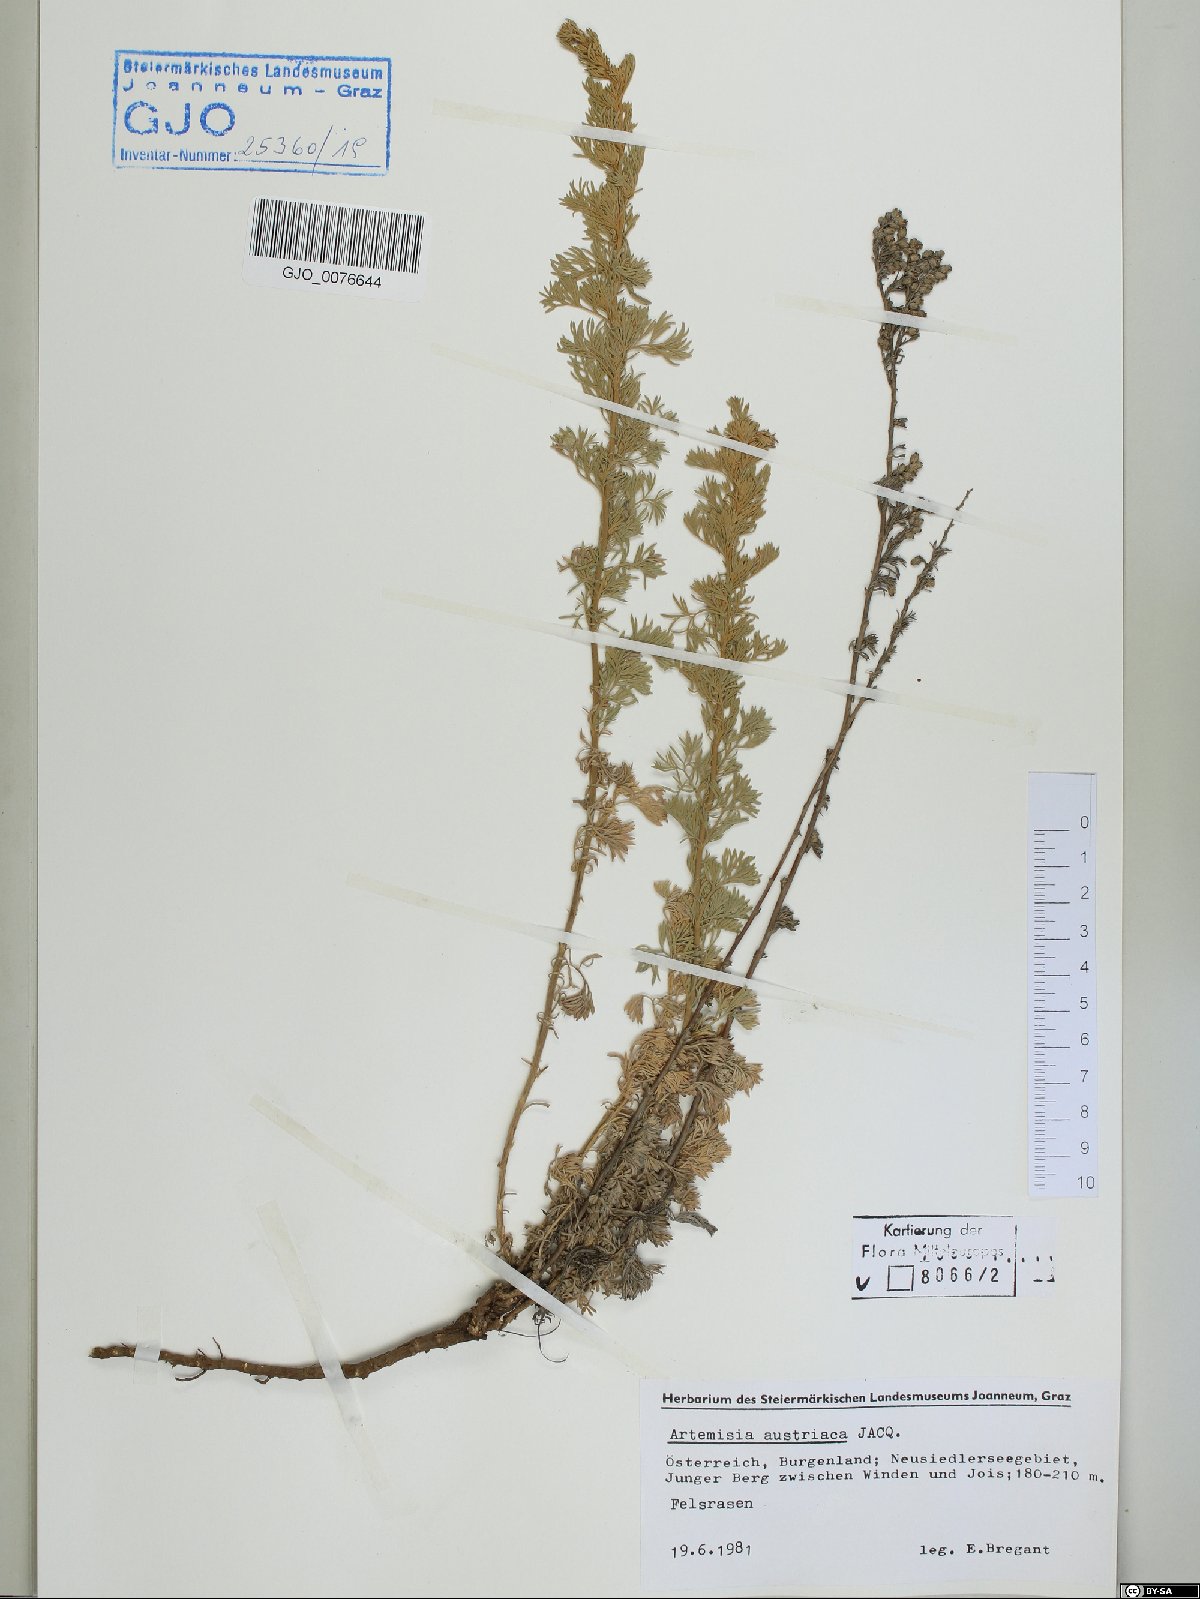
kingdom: Plantae
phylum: Tracheophyta
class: Magnoliopsida
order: Asterales
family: Asteraceae
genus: Artemisia
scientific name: Artemisia austriaca
